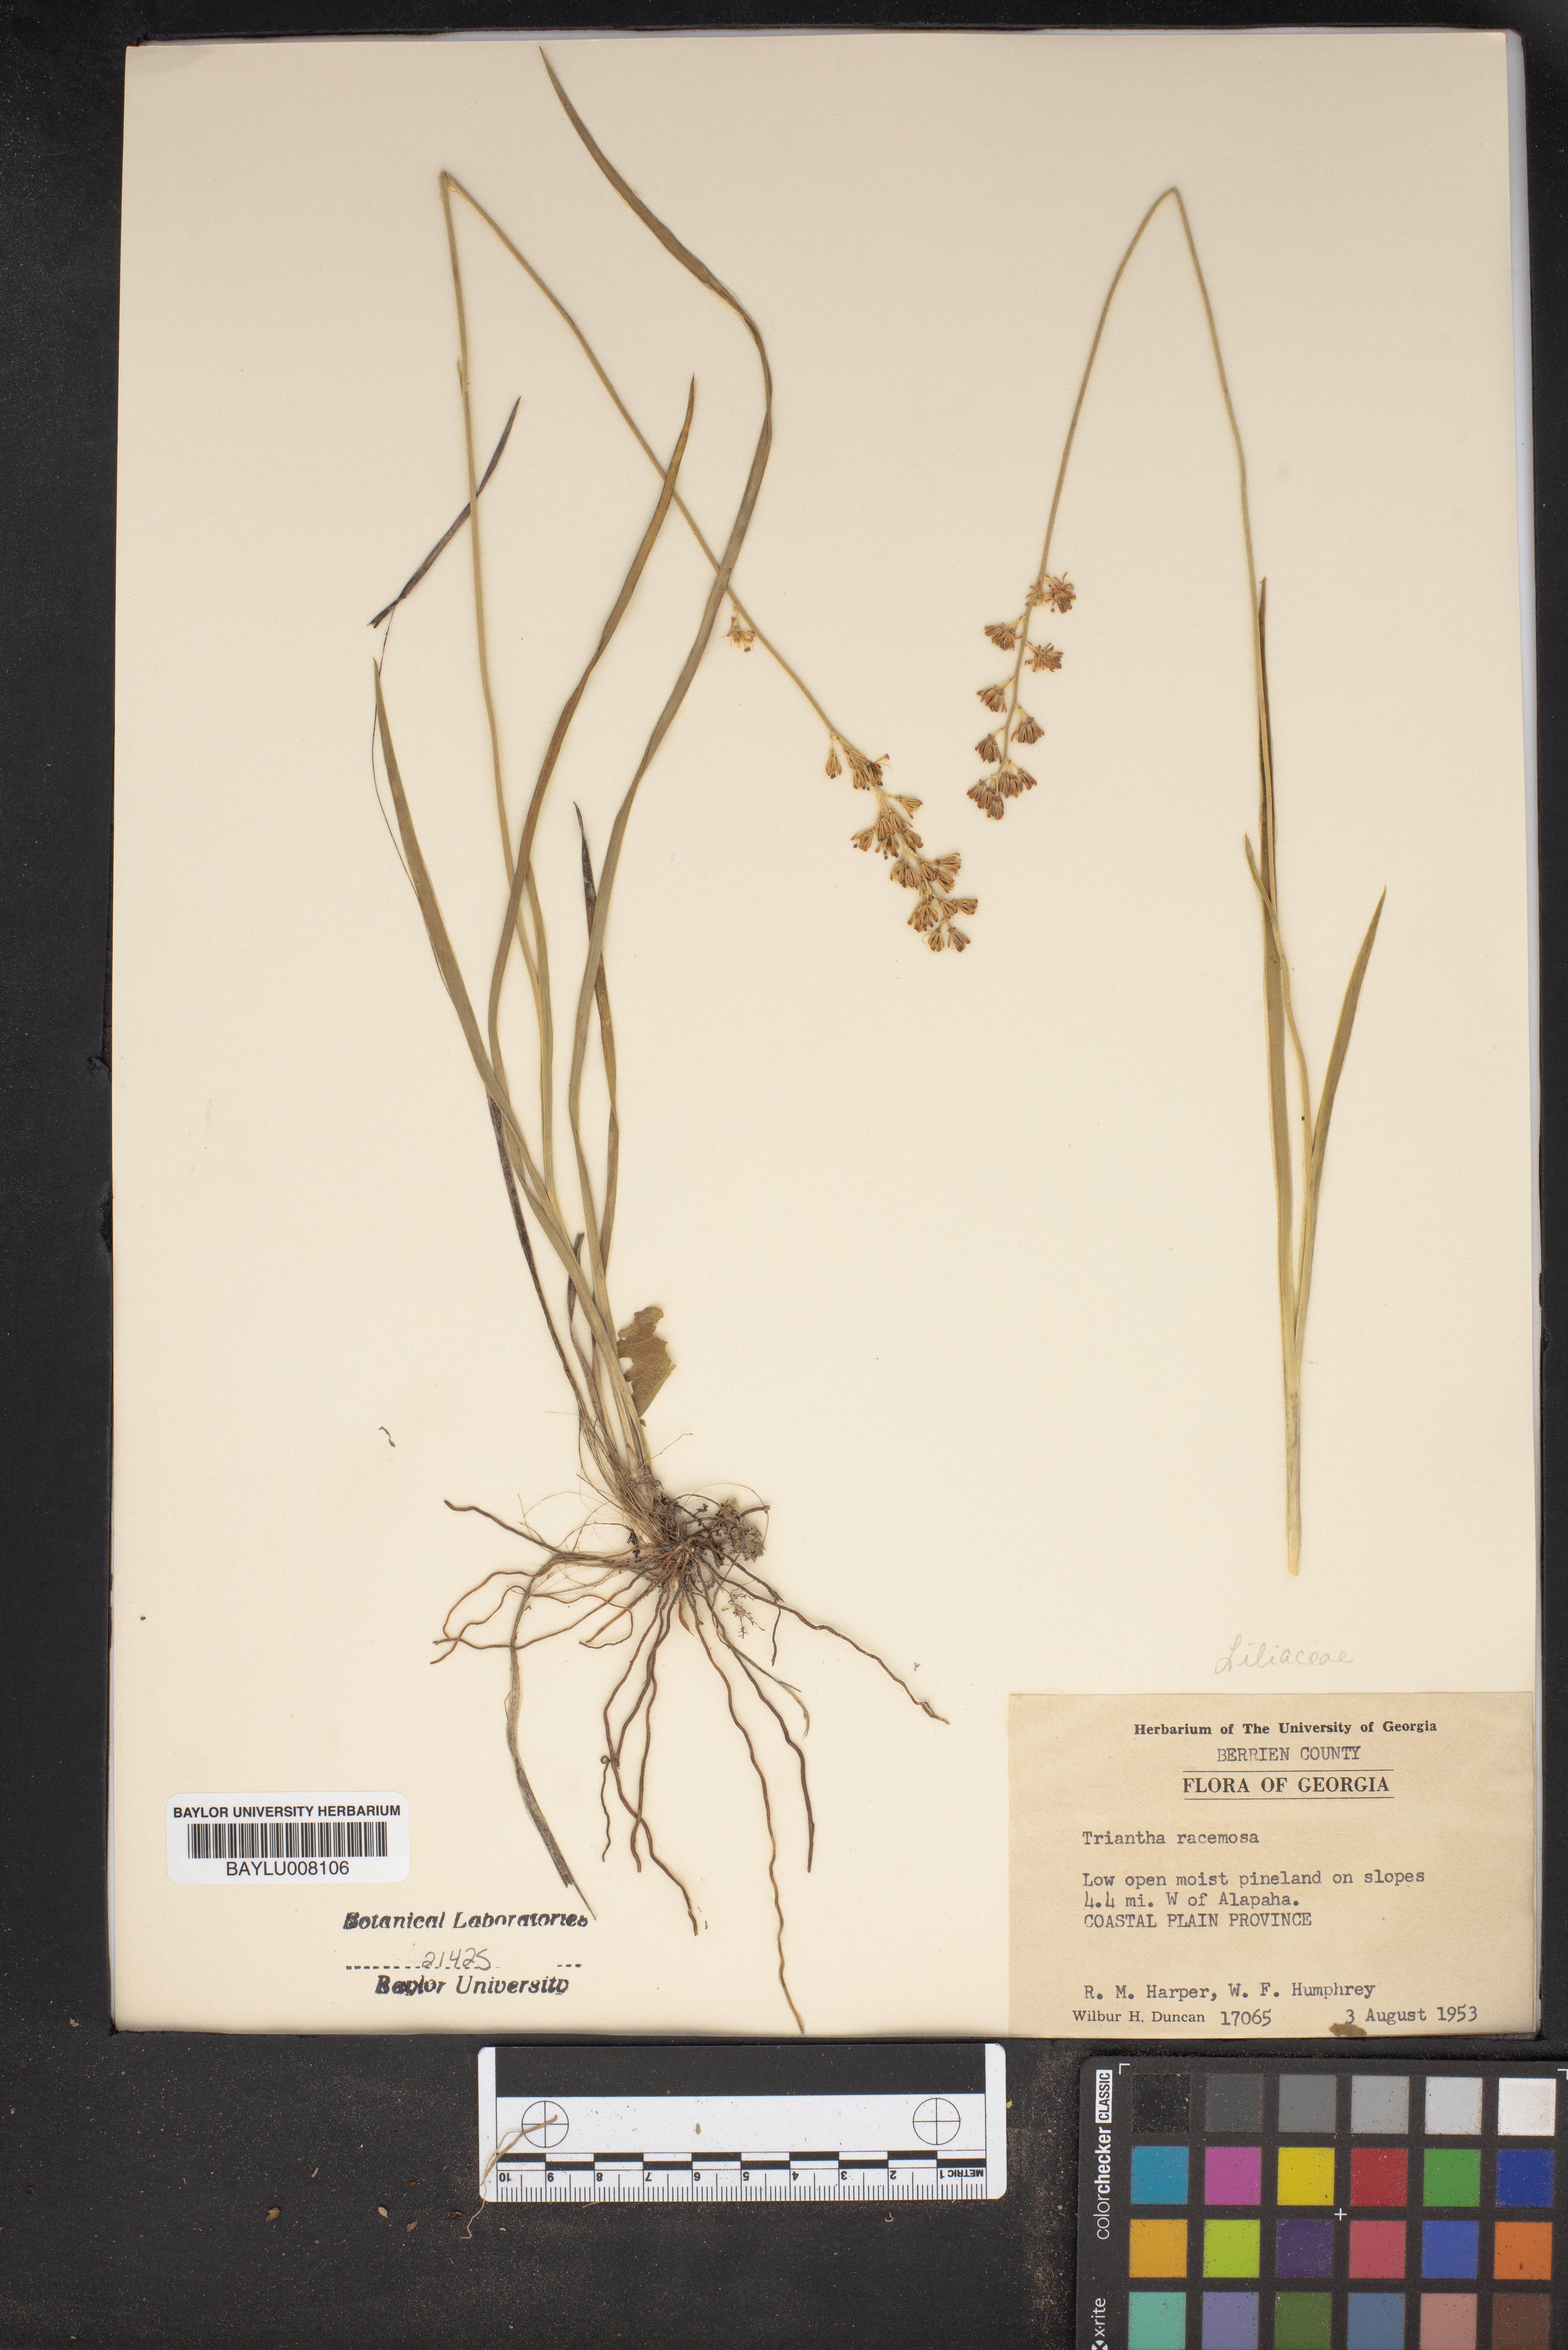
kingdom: Plantae
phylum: Tracheophyta
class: Liliopsida
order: Alismatales
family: Tofieldiaceae
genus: Triantha
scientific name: Triantha racemosa
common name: Coastal false asphodel
